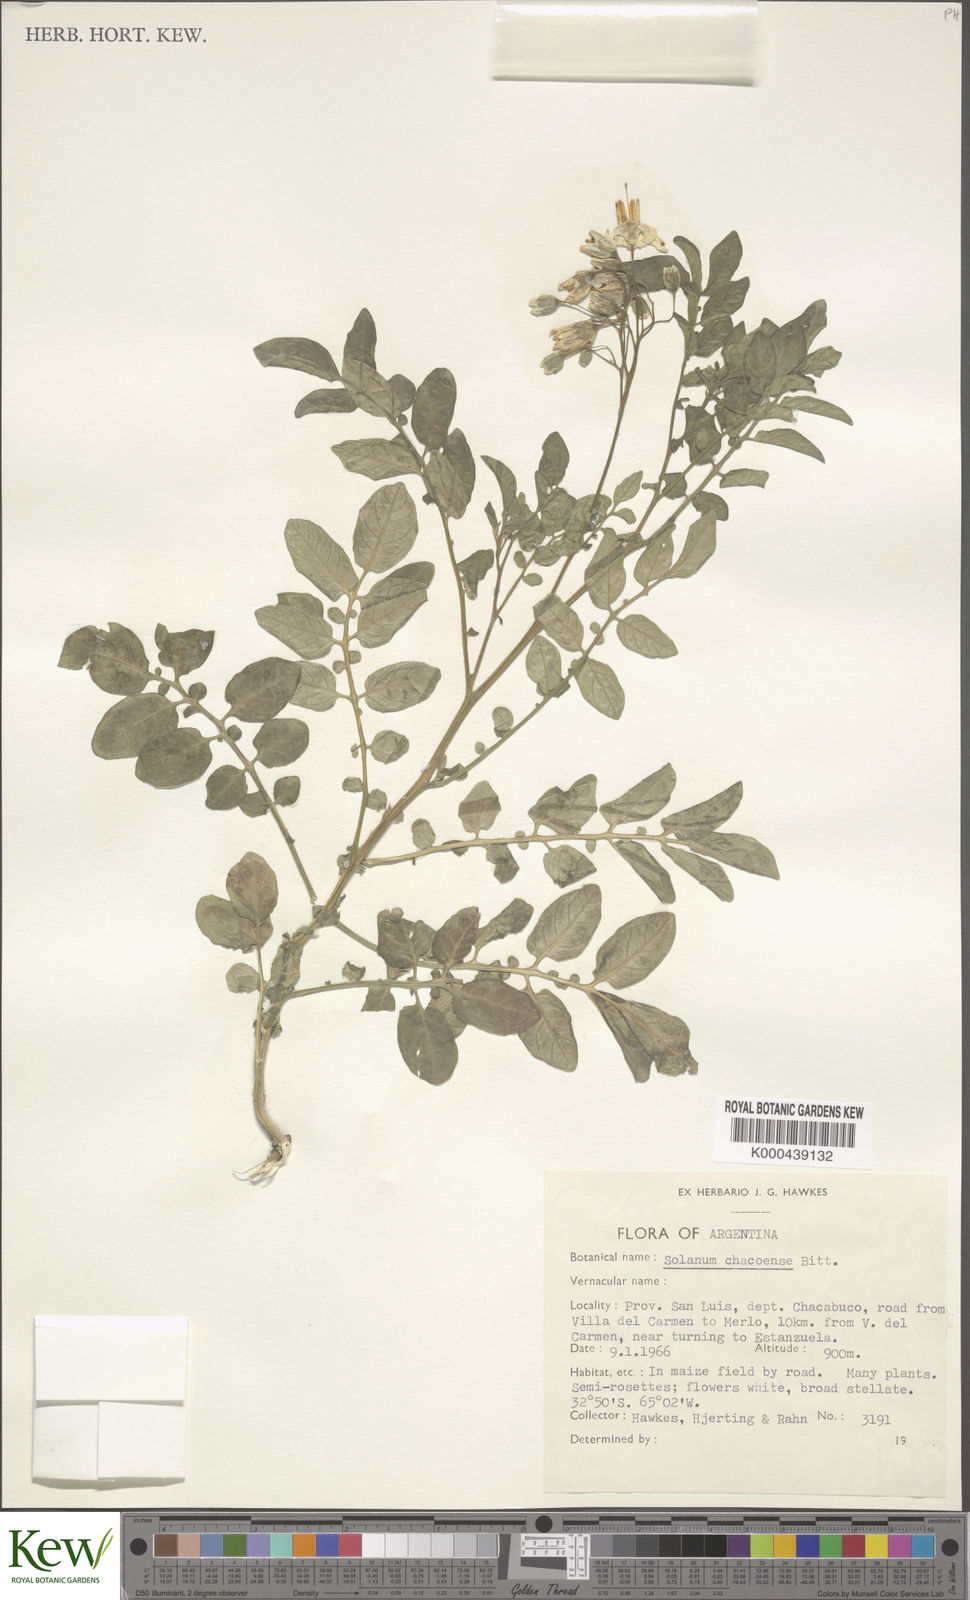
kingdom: Plantae
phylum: Tracheophyta
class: Magnoliopsida
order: Solanales
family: Solanaceae
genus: Solanum
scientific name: Solanum chacoense
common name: Chaco potato
